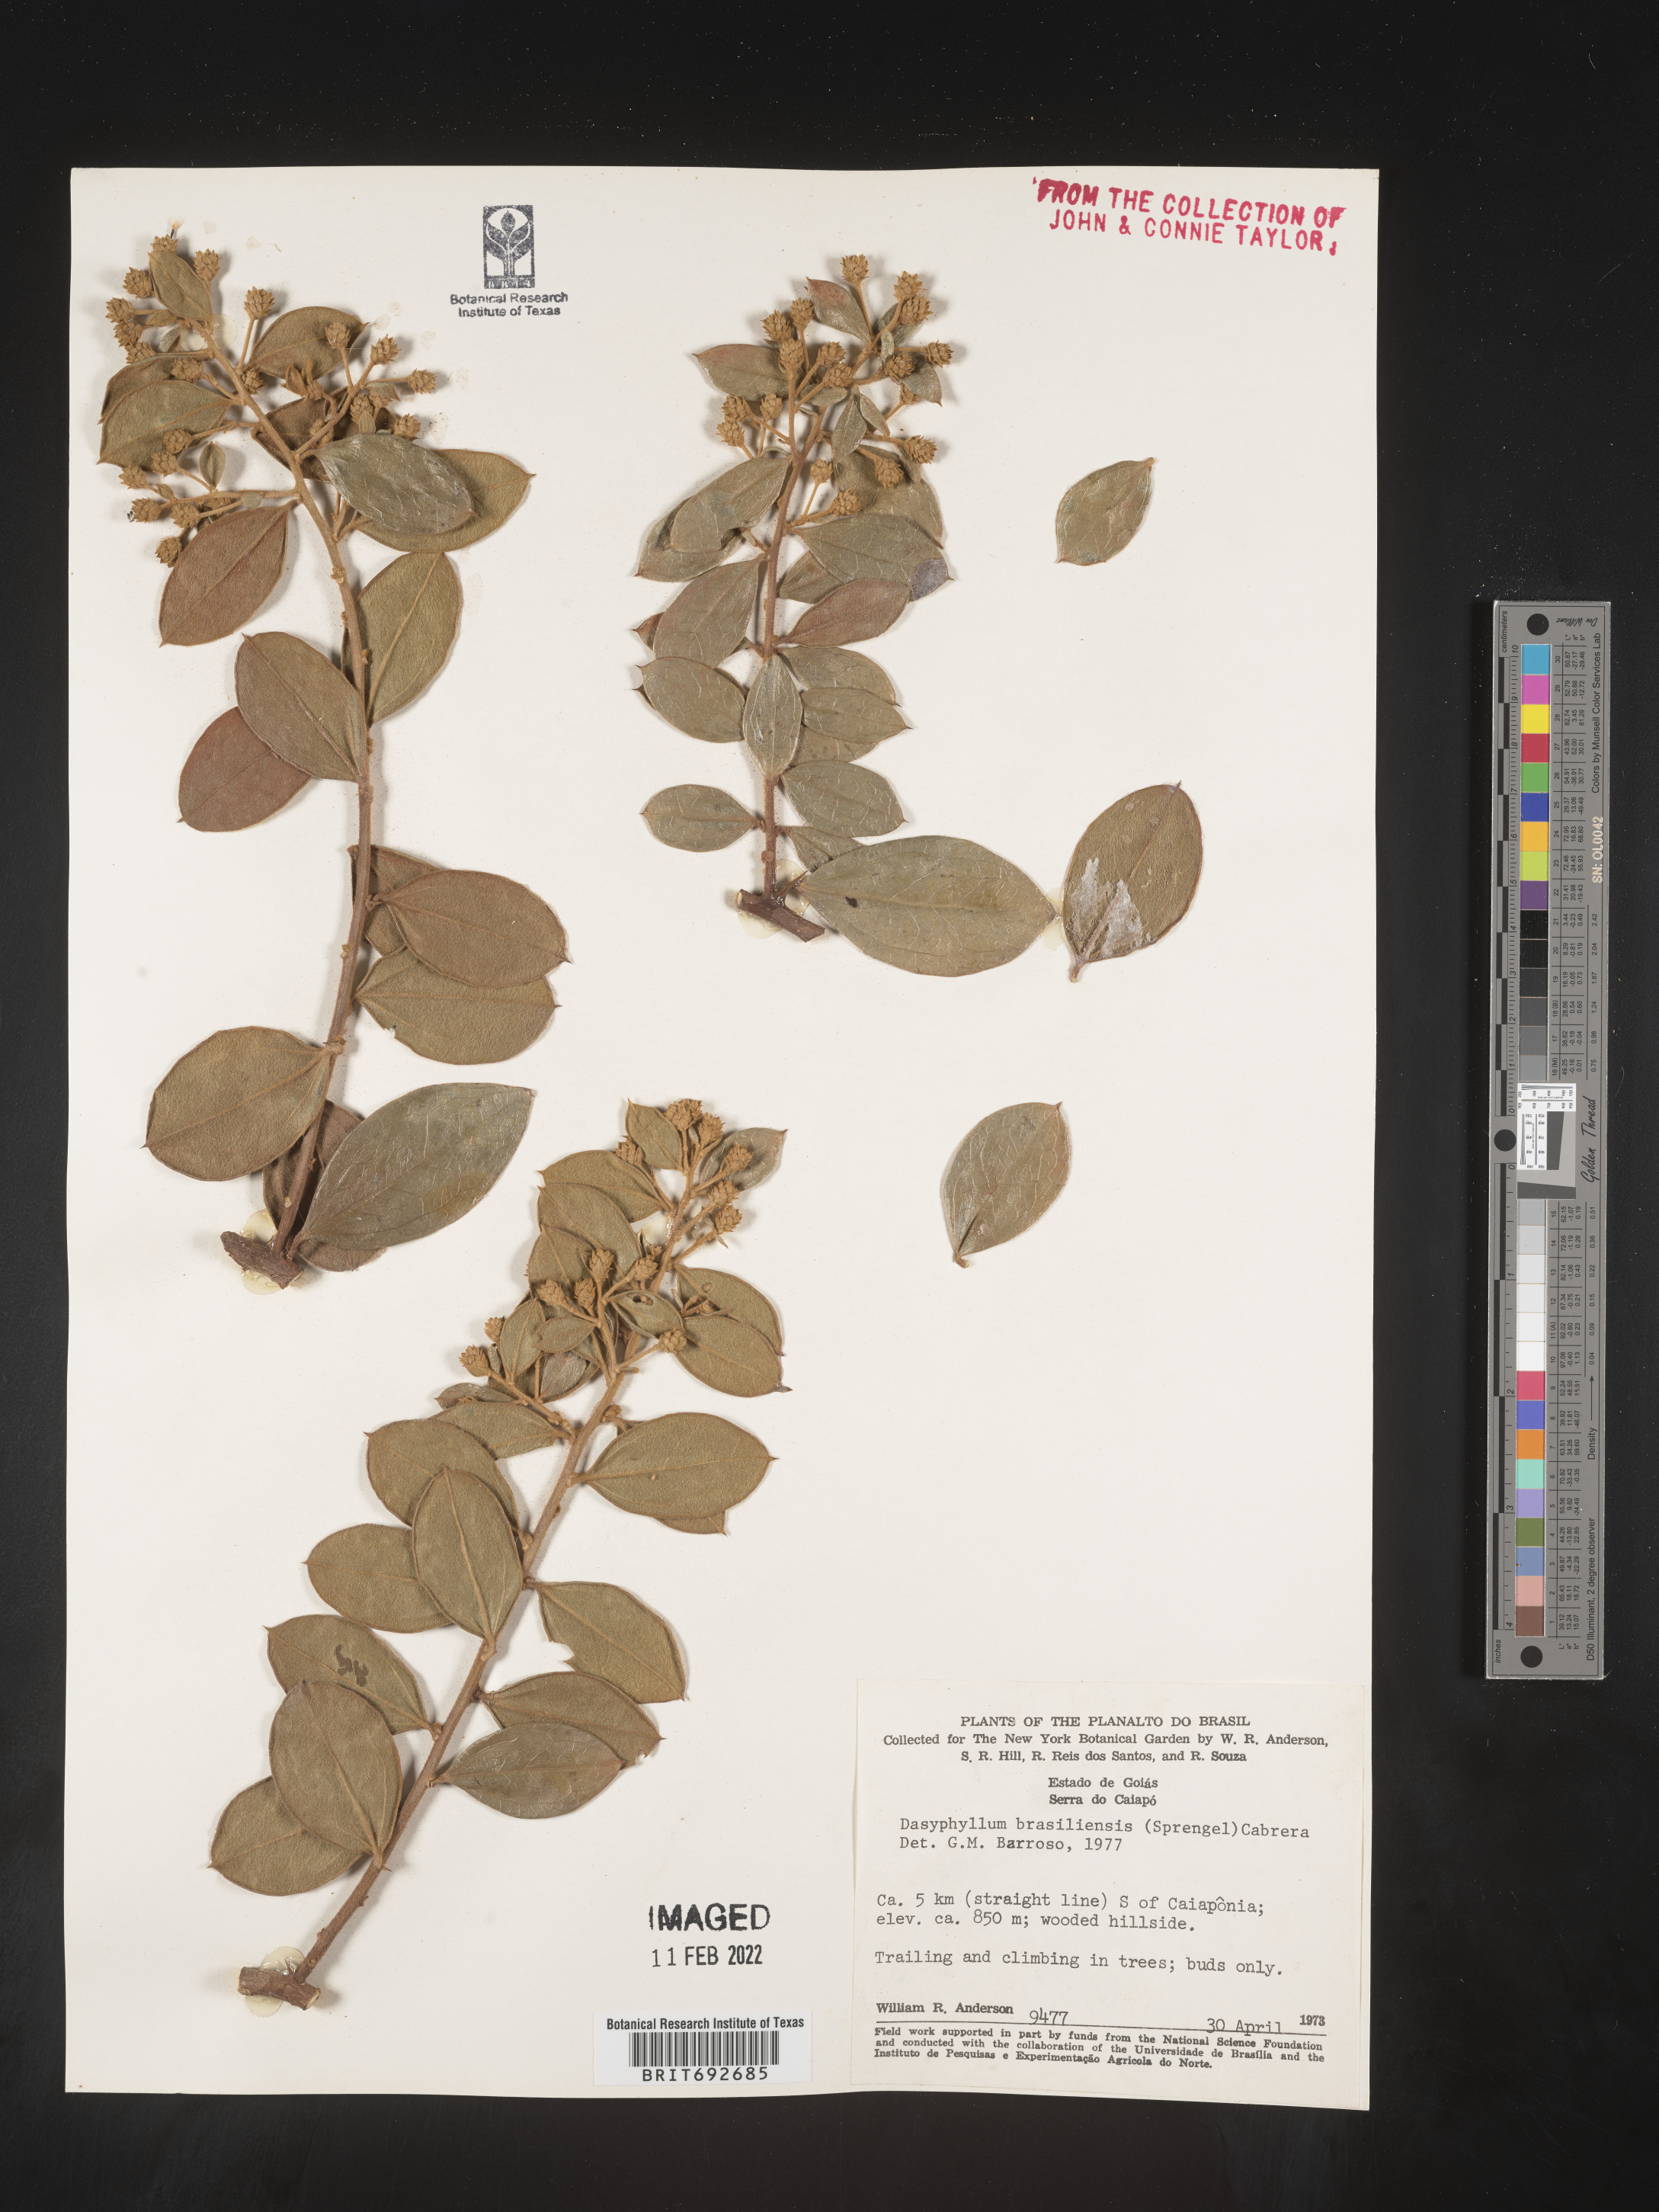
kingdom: Plantae
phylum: Tracheophyta
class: Magnoliopsida
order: Asterales
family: Asteraceae
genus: Dasyphyllum
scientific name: Dasyphyllum
